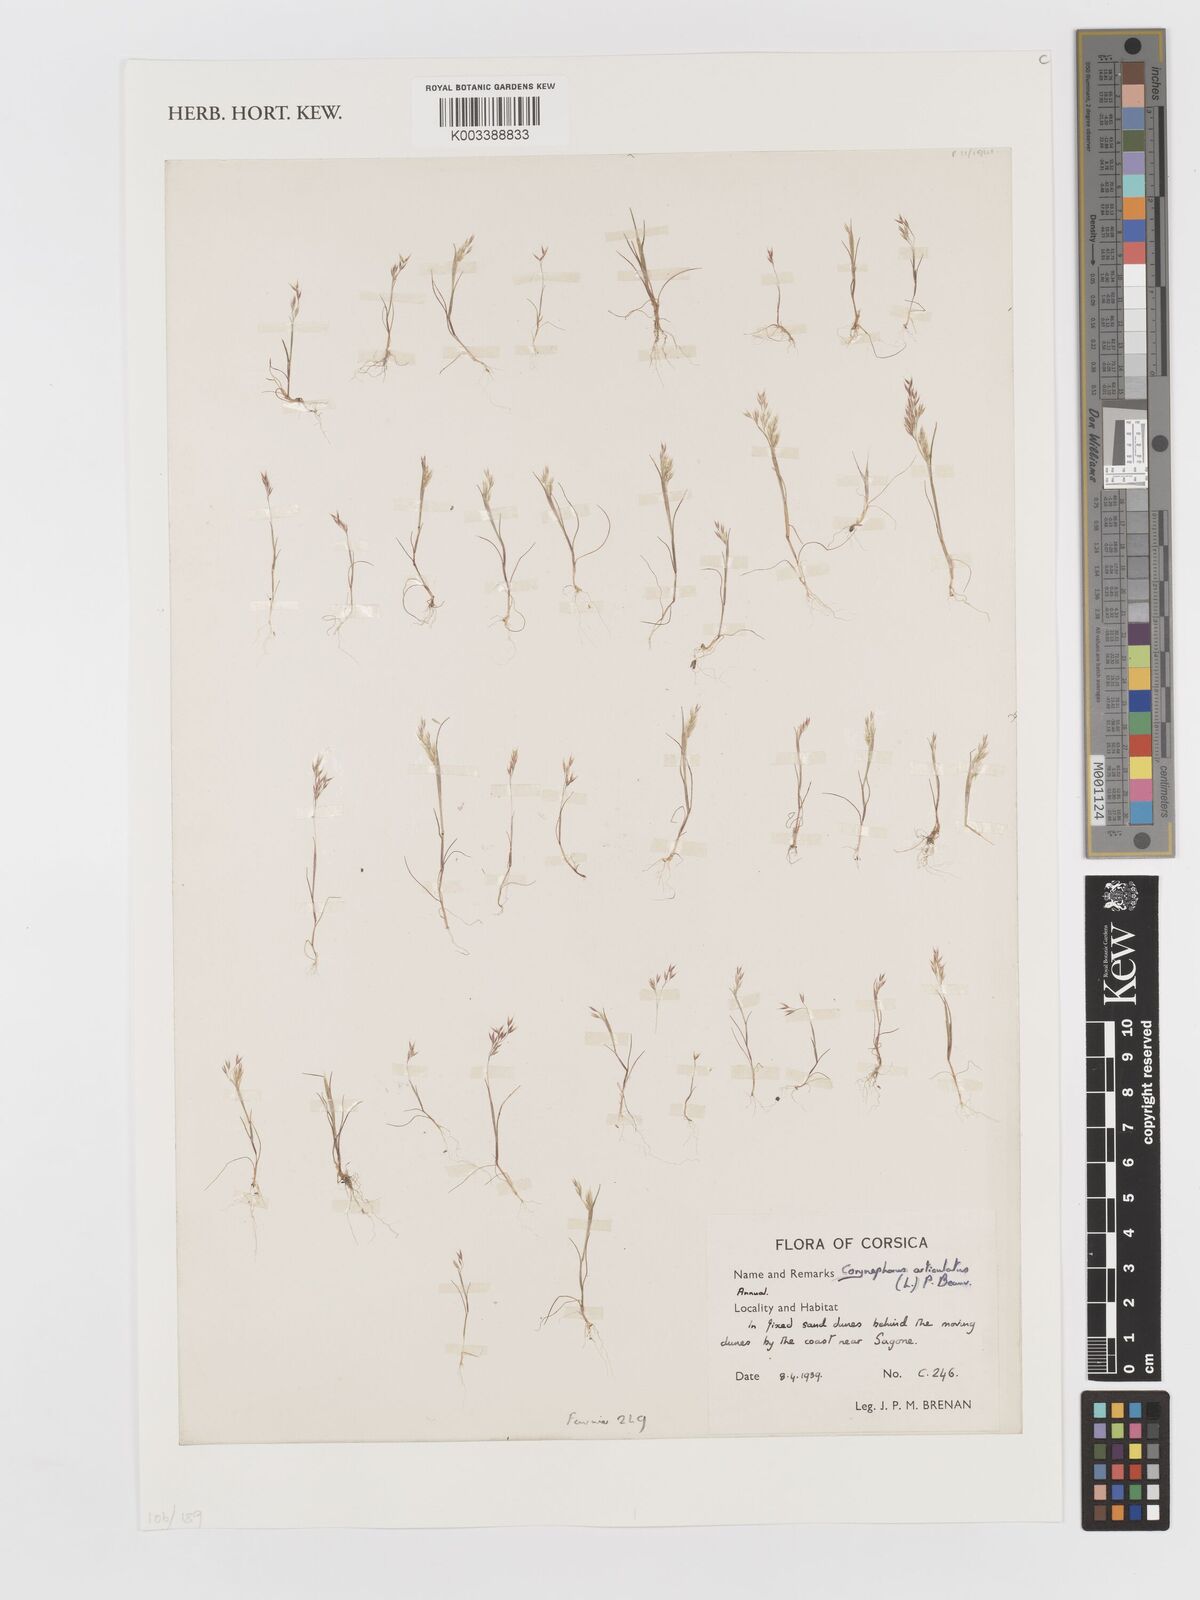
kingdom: Plantae
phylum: Tracheophyta
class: Liliopsida
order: Poales
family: Poaceae
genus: Corynephorus
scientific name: Corynephorus divaricatus
